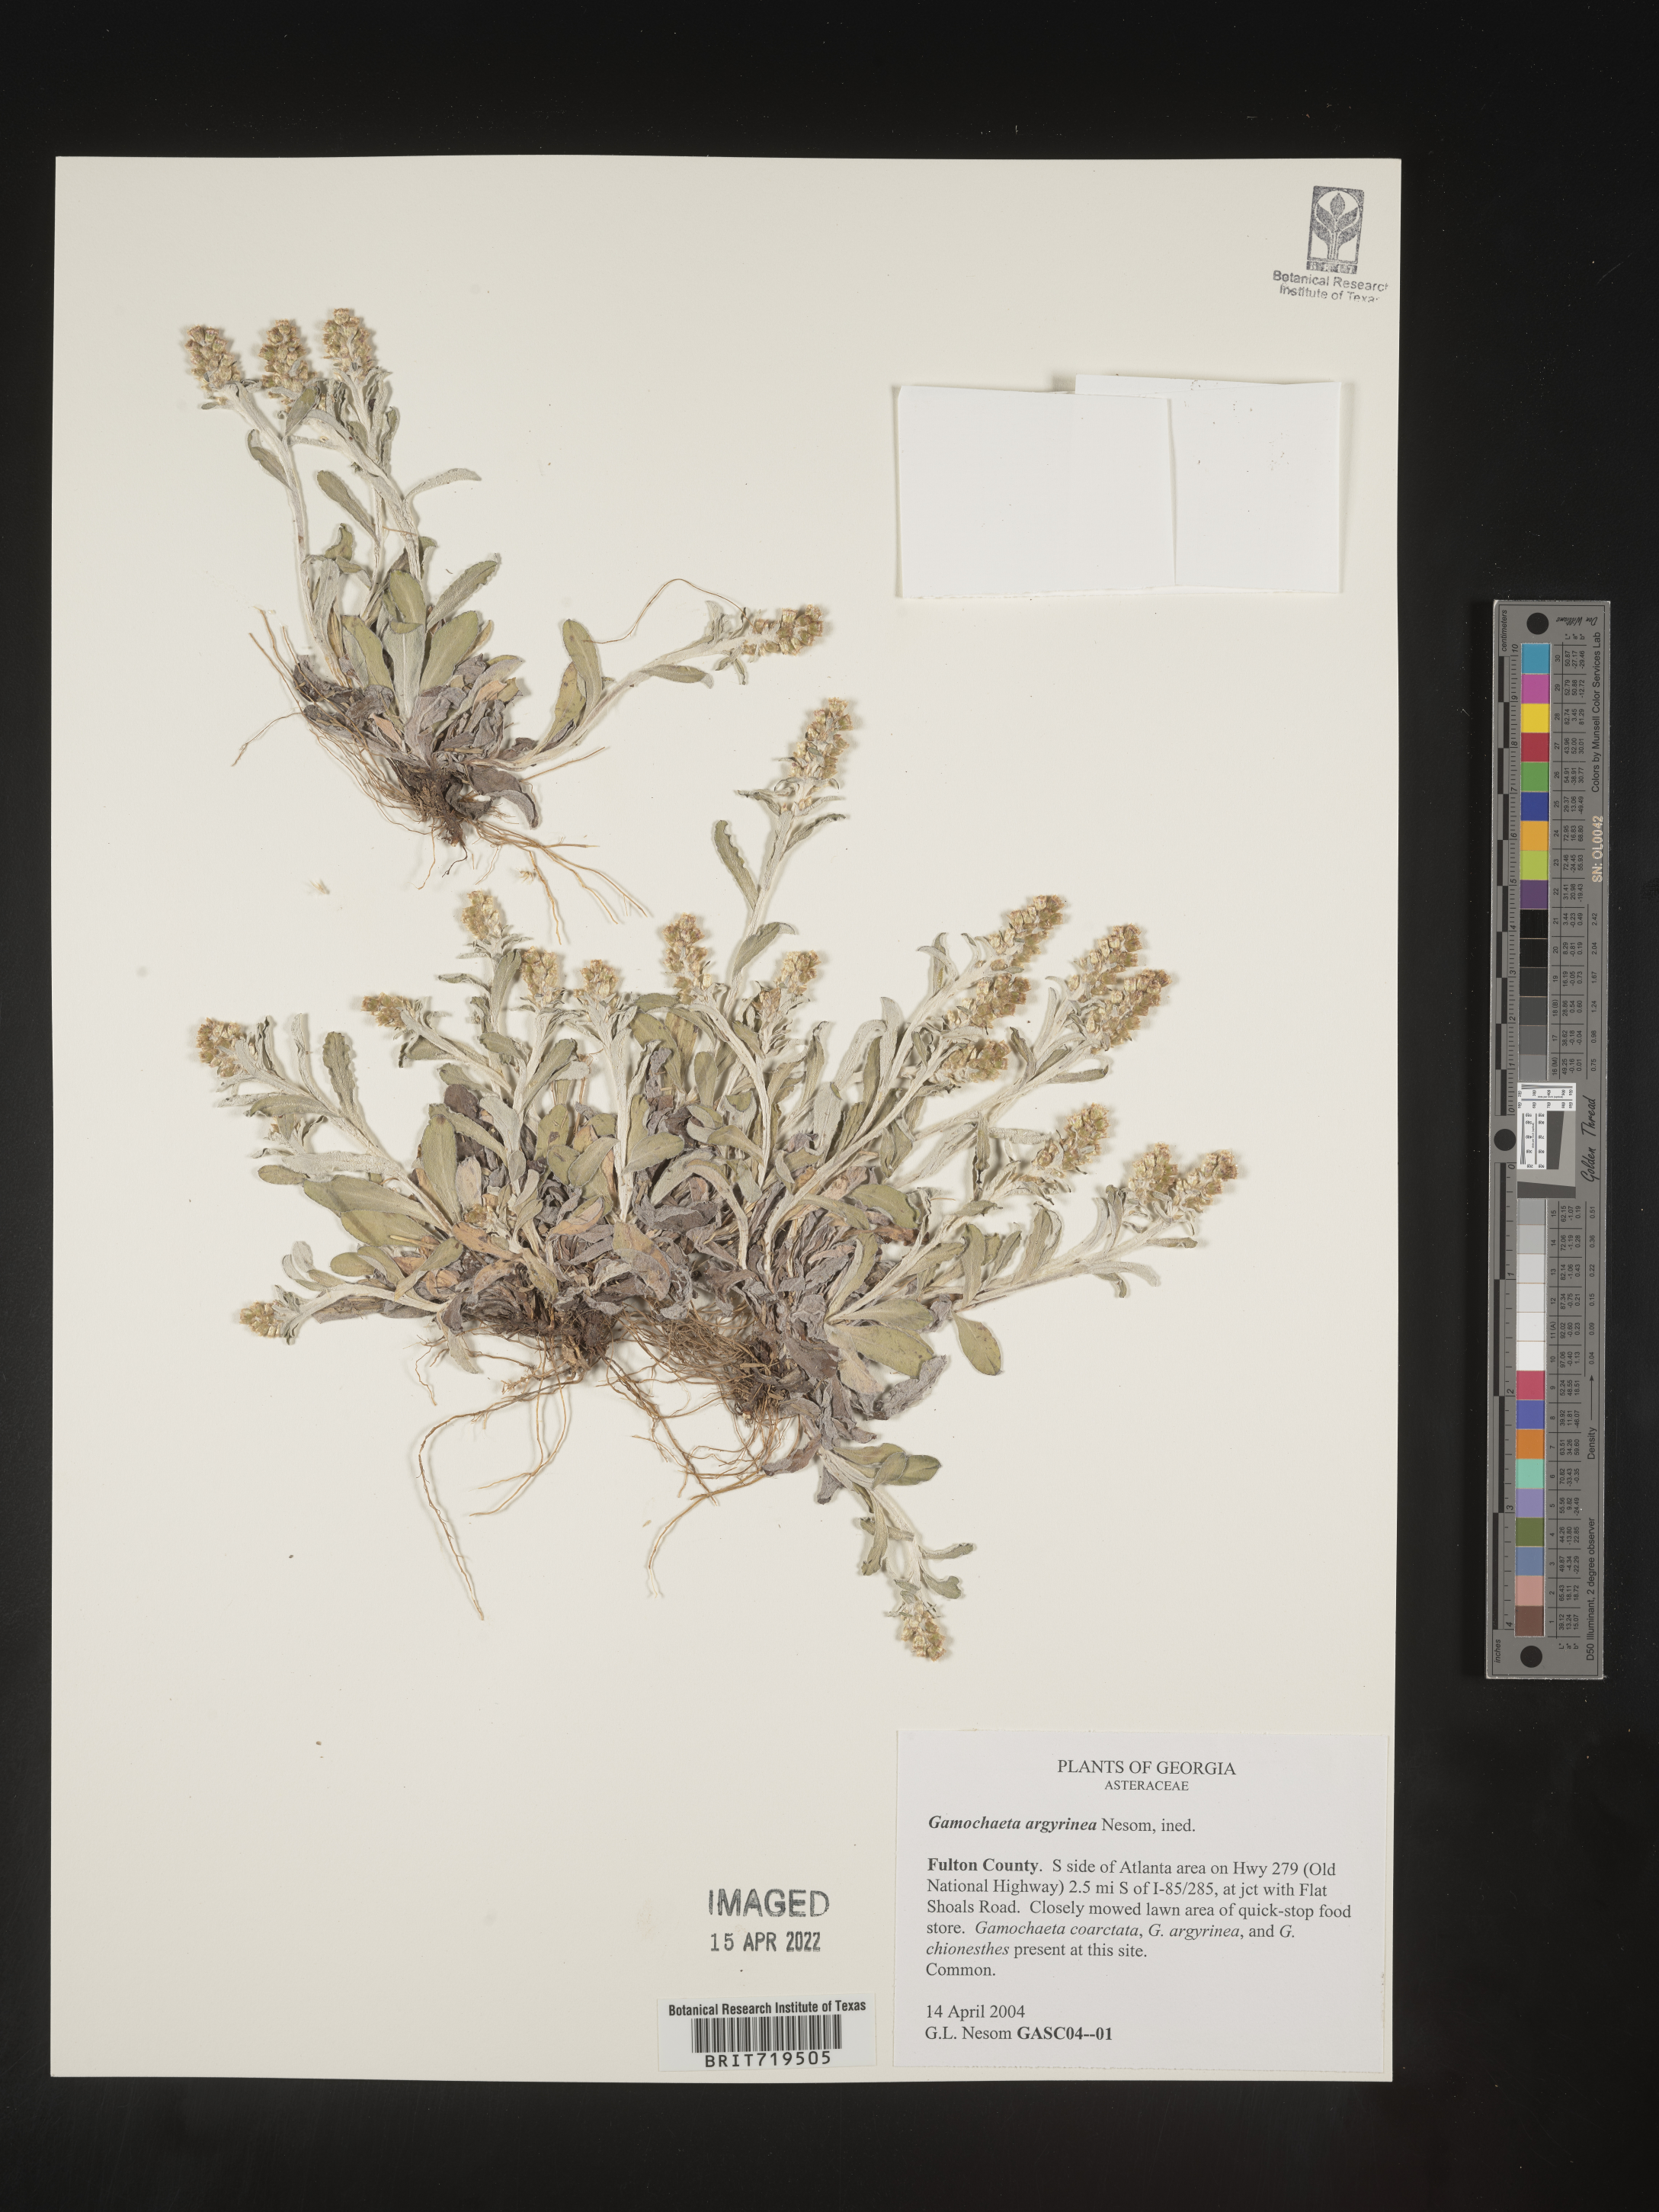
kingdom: Plantae
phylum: Tracheophyta
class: Magnoliopsida
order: Asterales
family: Asteraceae
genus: Gamochaeta
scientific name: Gamochaeta argyrinea
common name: Silvery cudweed
